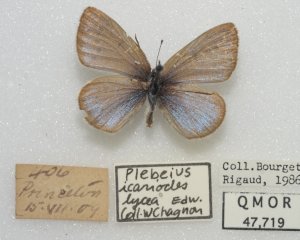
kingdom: Animalia
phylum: Arthropoda
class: Insecta
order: Lepidoptera
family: Lycaenidae
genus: Glaucopsyche
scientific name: Glaucopsyche lygdamus
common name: Silvery Blue
